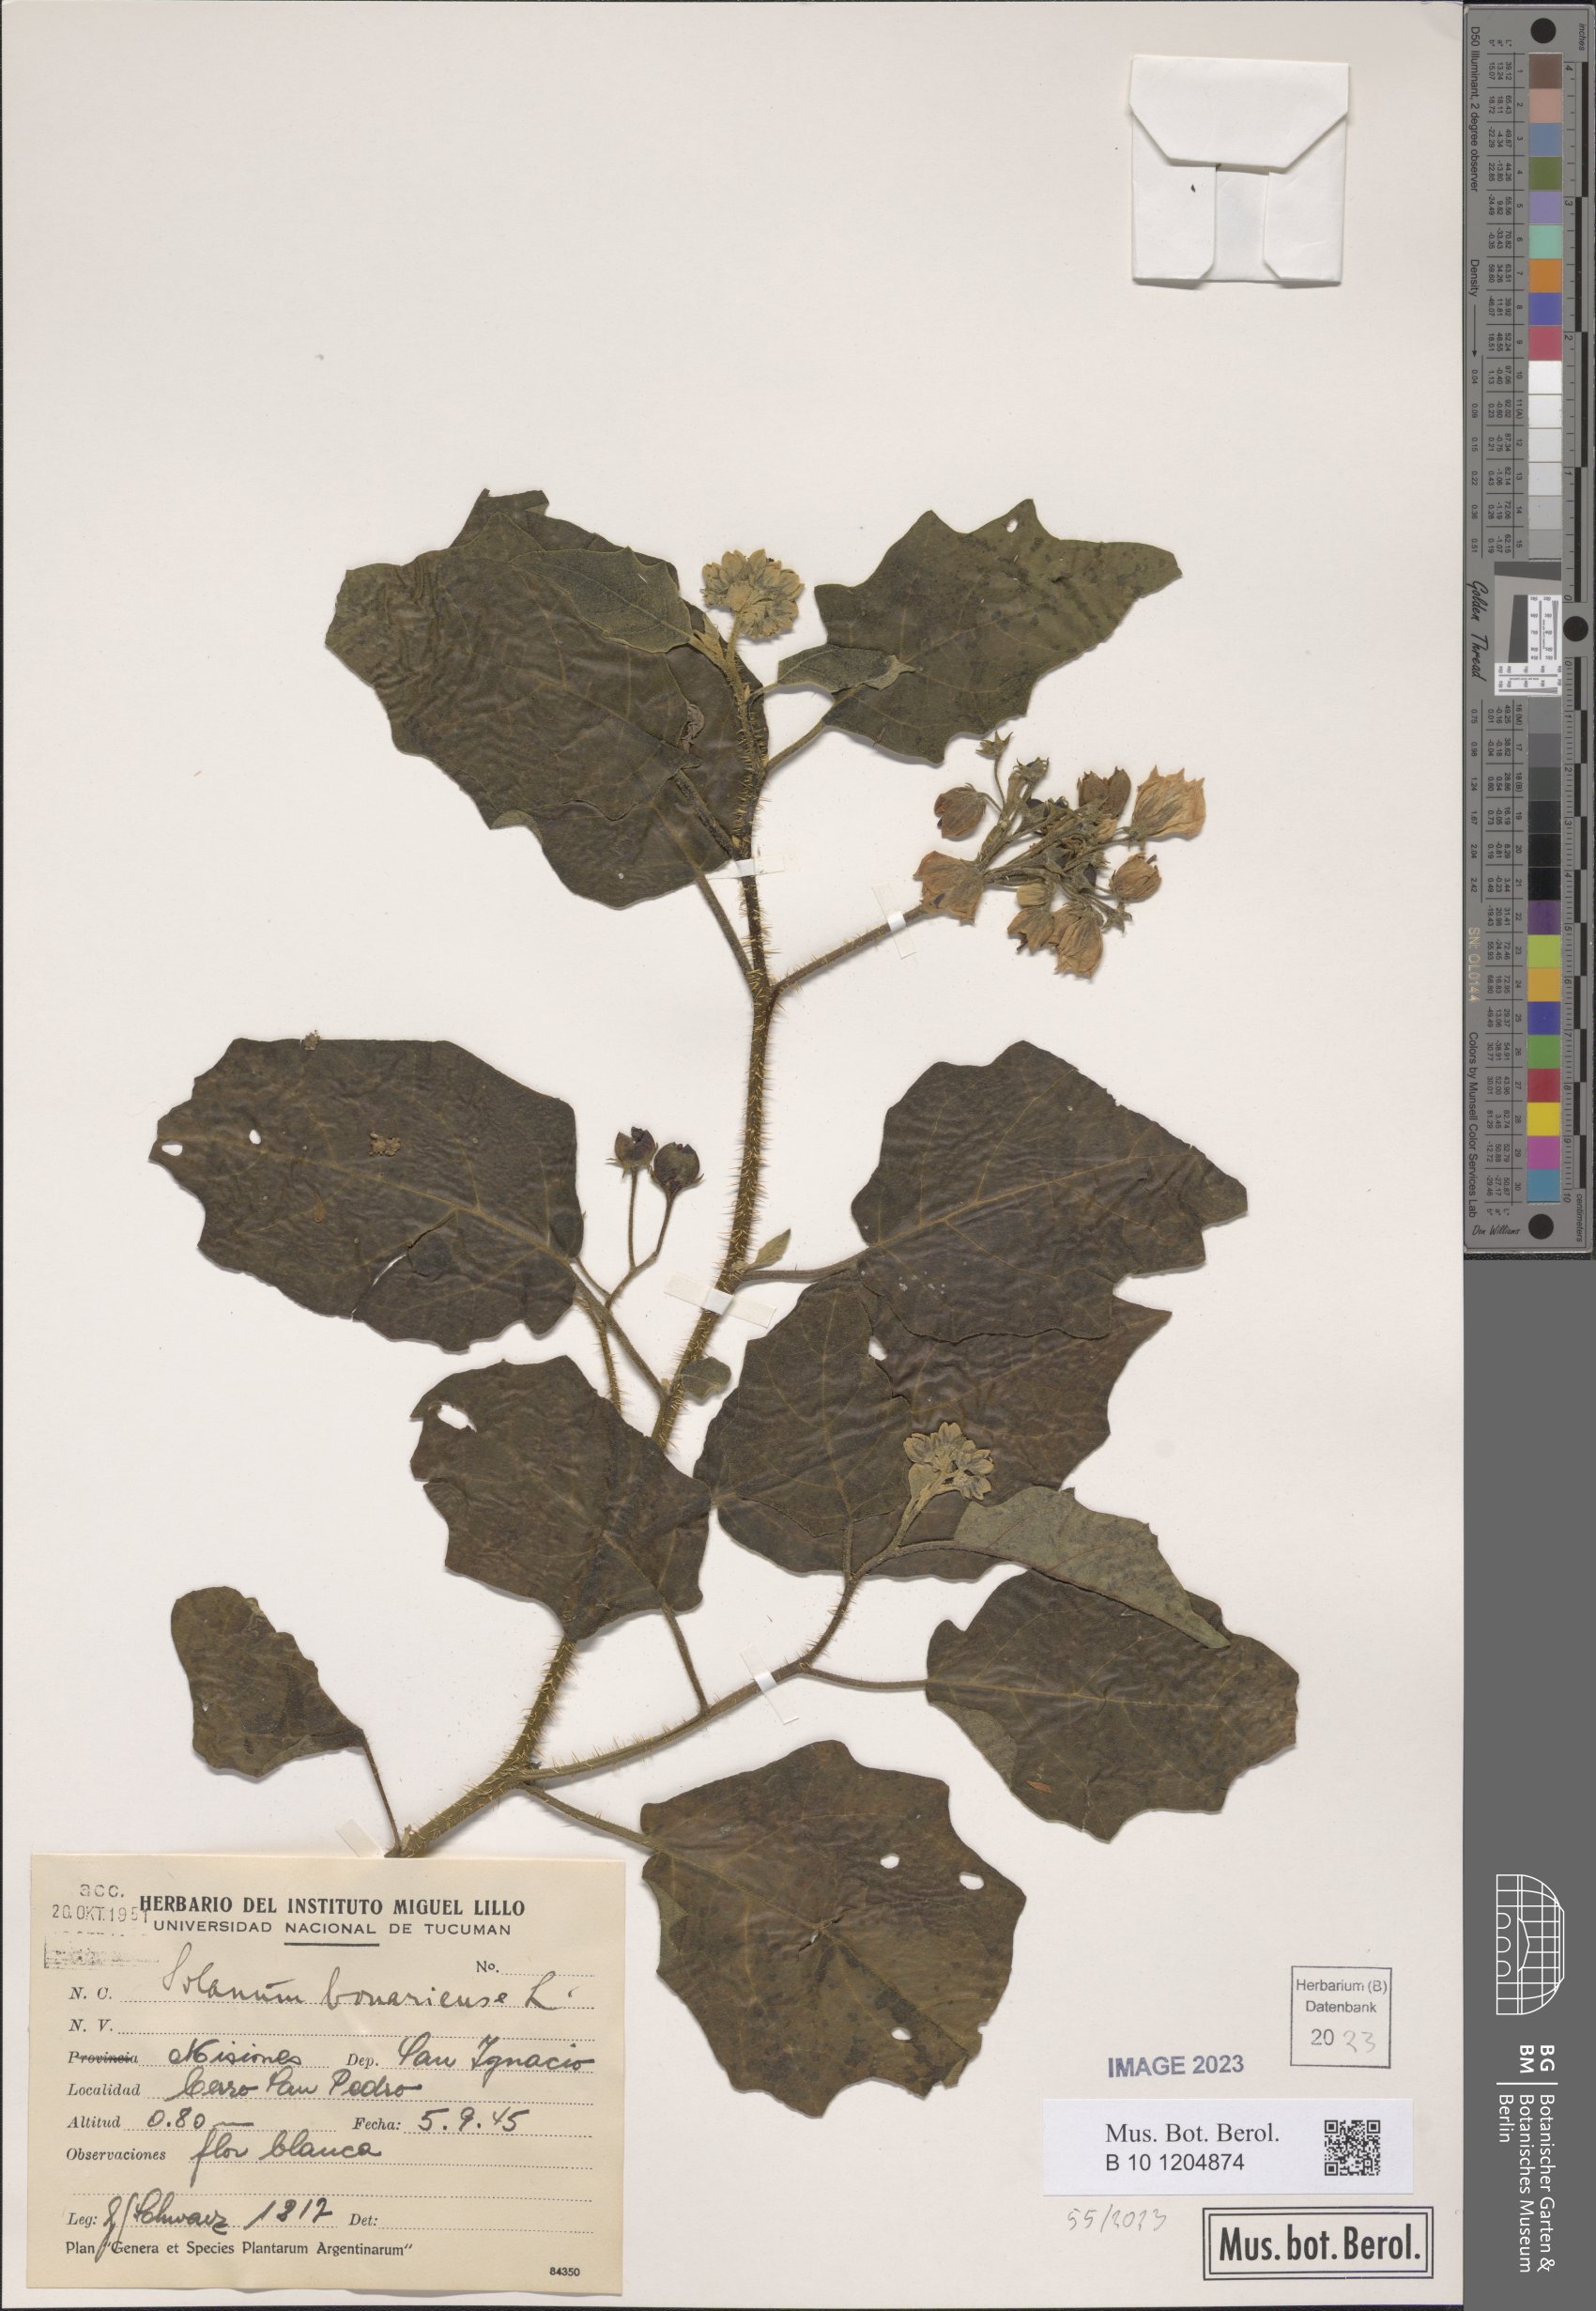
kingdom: Plantae
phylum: Tracheophyta
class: Magnoliopsida
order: Solanales
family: Solanaceae
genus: Solanum
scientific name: Solanum bonariense
